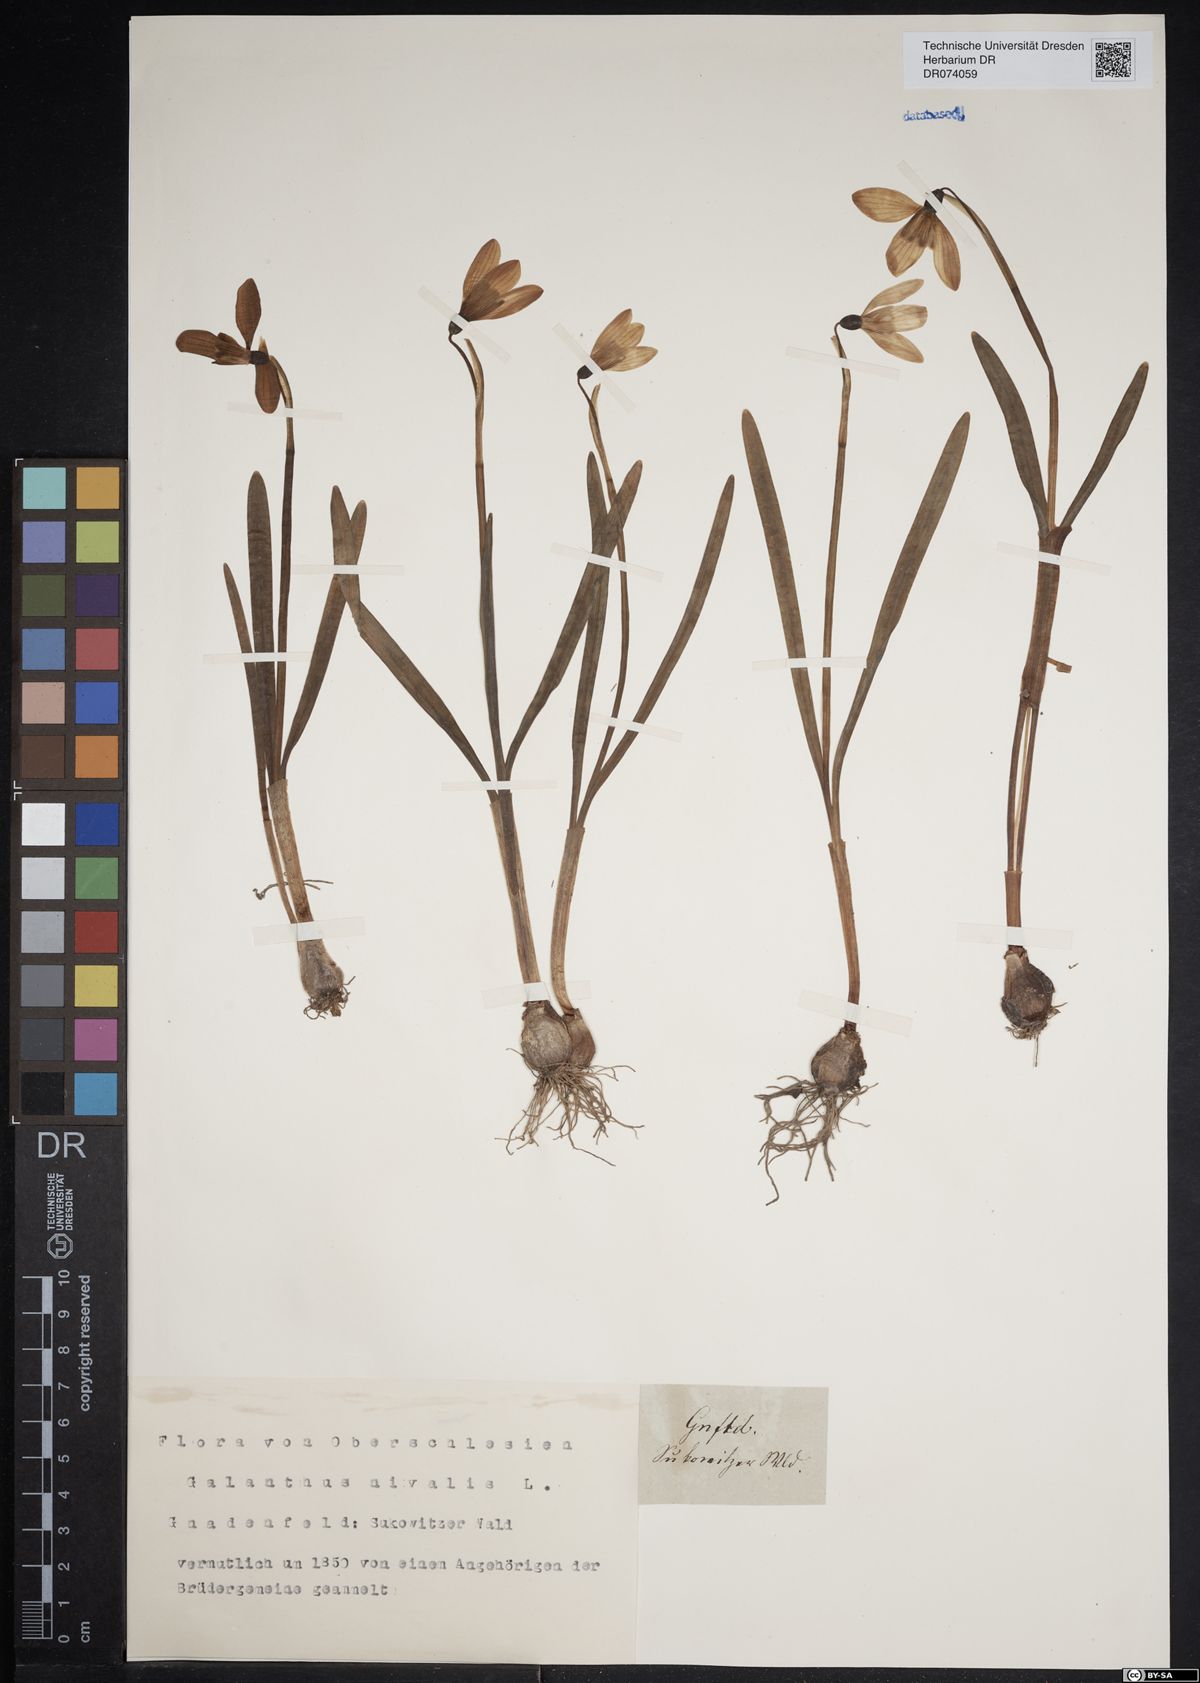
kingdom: Plantae
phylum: Tracheophyta
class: Liliopsida
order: Asparagales
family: Amaryllidaceae
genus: Galanthus
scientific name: Galanthus nivalis
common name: Snowdrop
